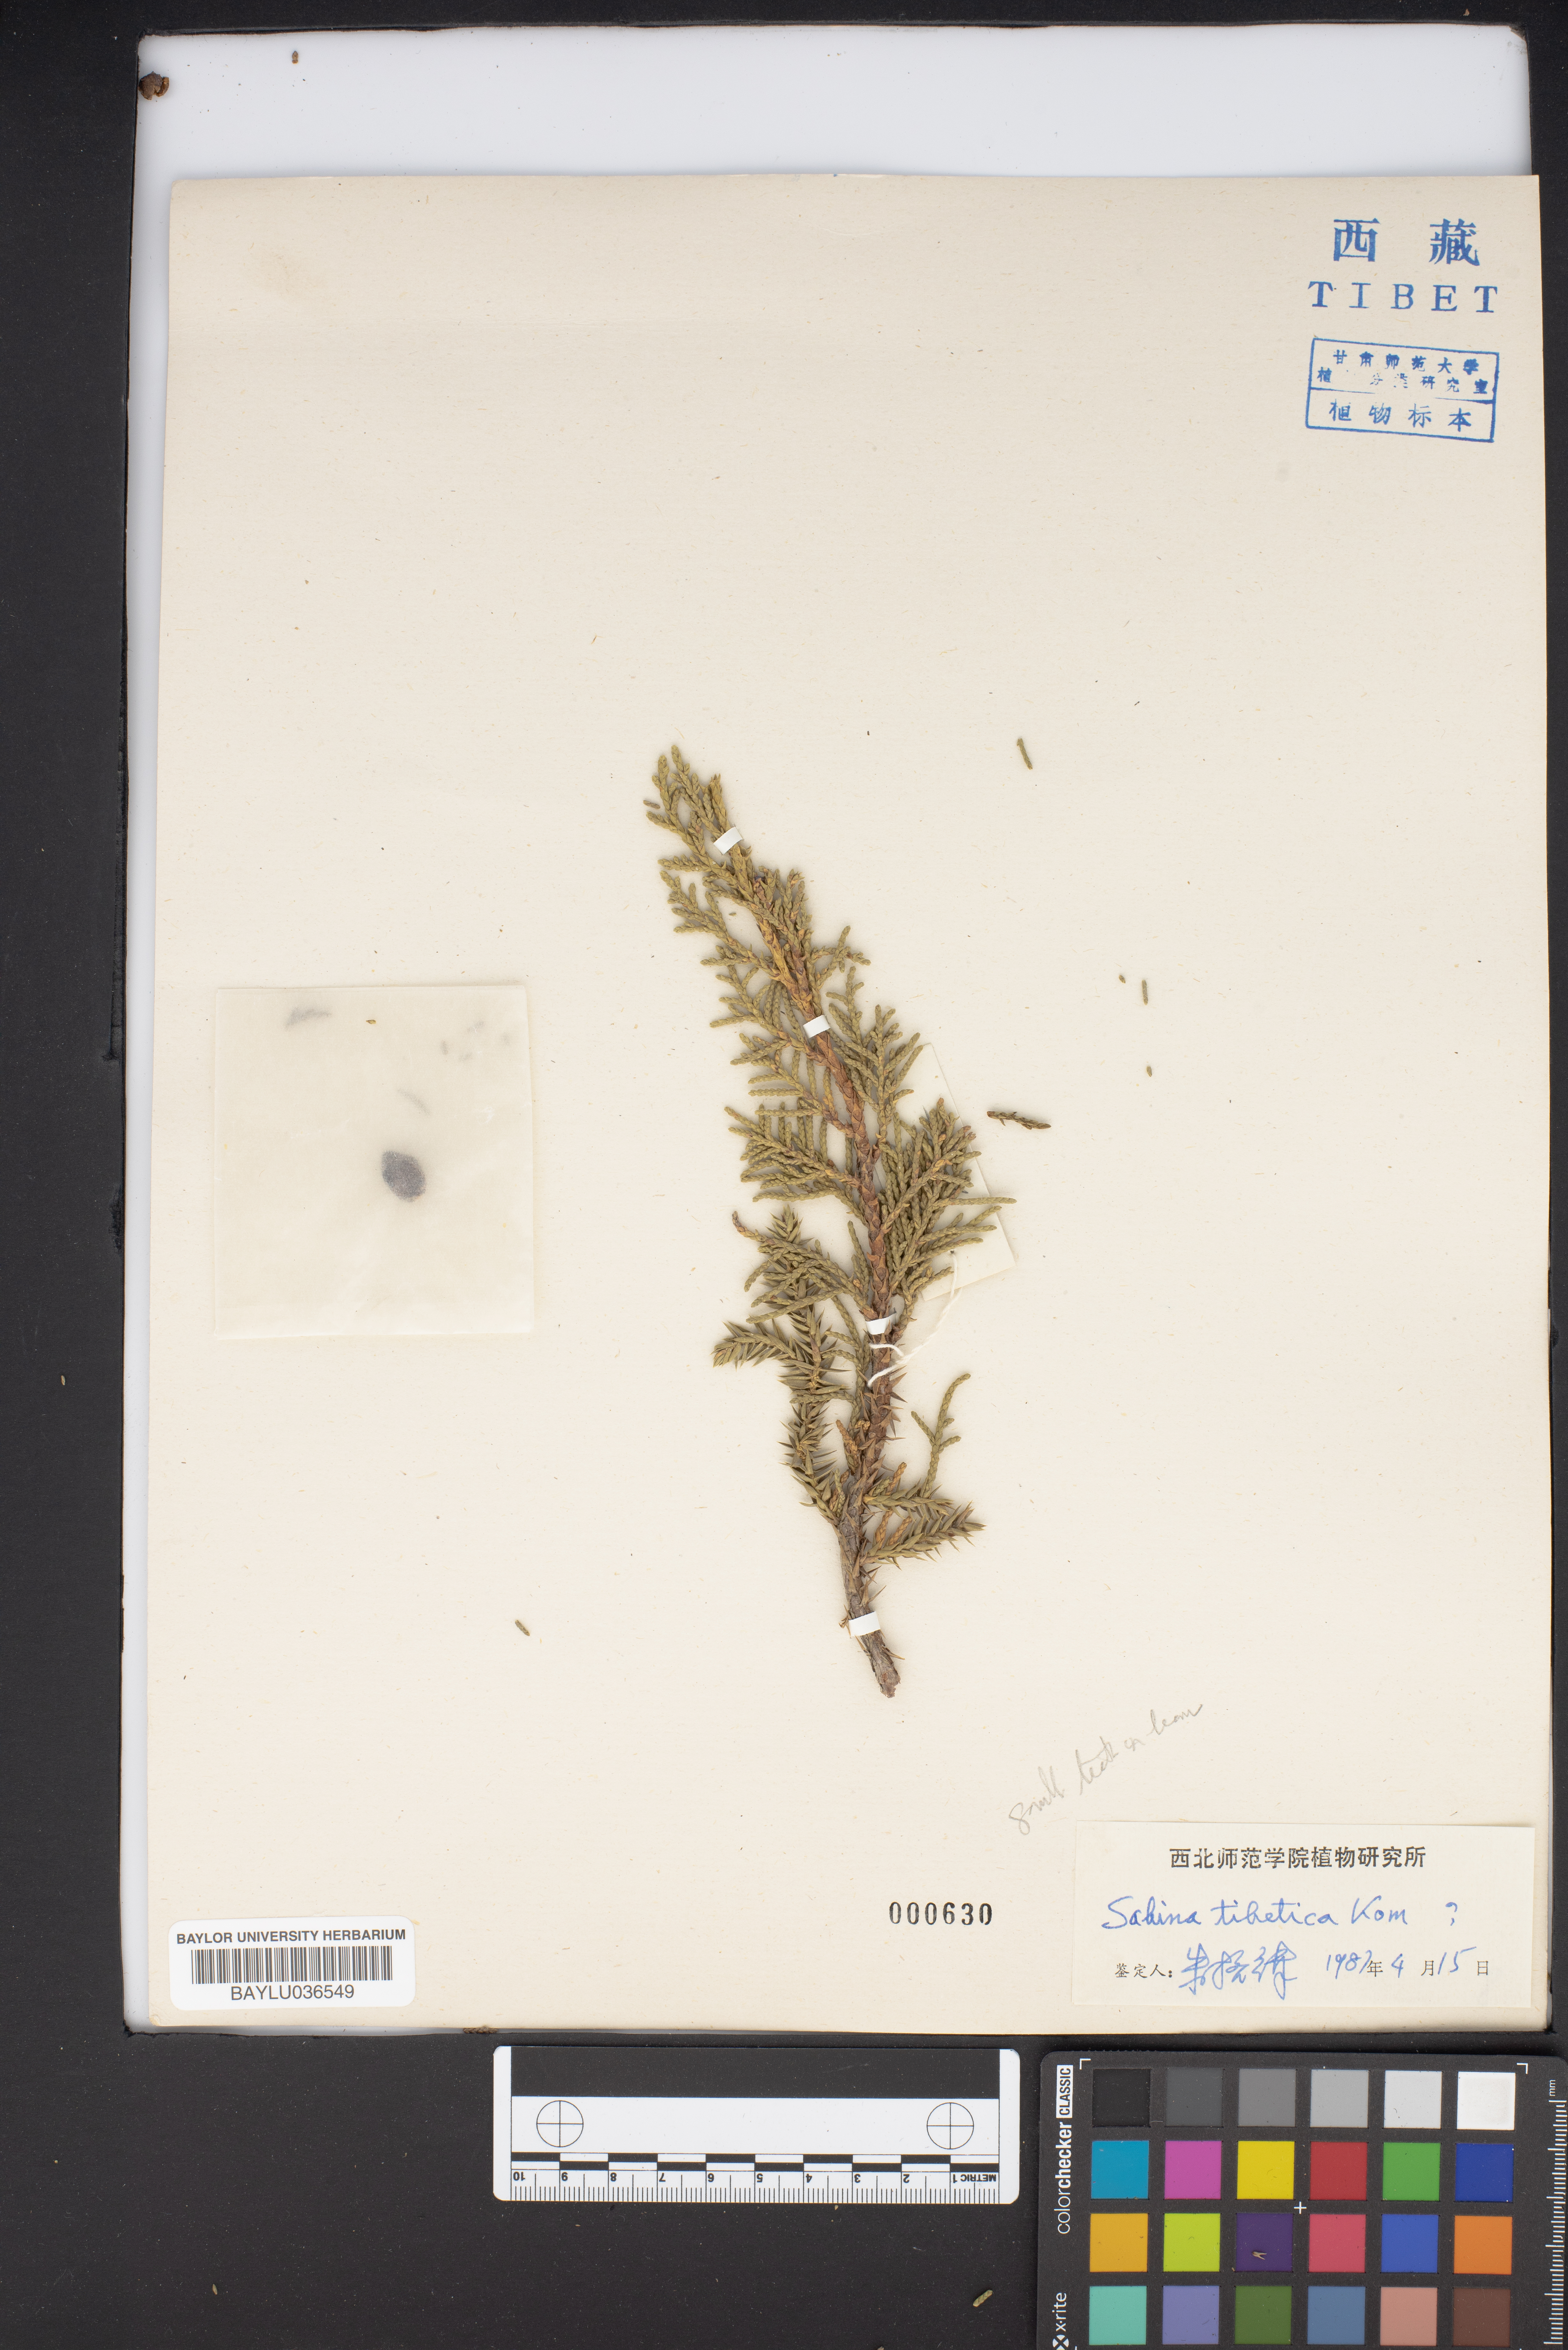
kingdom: Plantae
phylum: Tracheophyta
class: Pinopsida
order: Pinales
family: Cupressaceae
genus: Juniperus
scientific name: Juniperus tibetica
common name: Tibetan juniper
